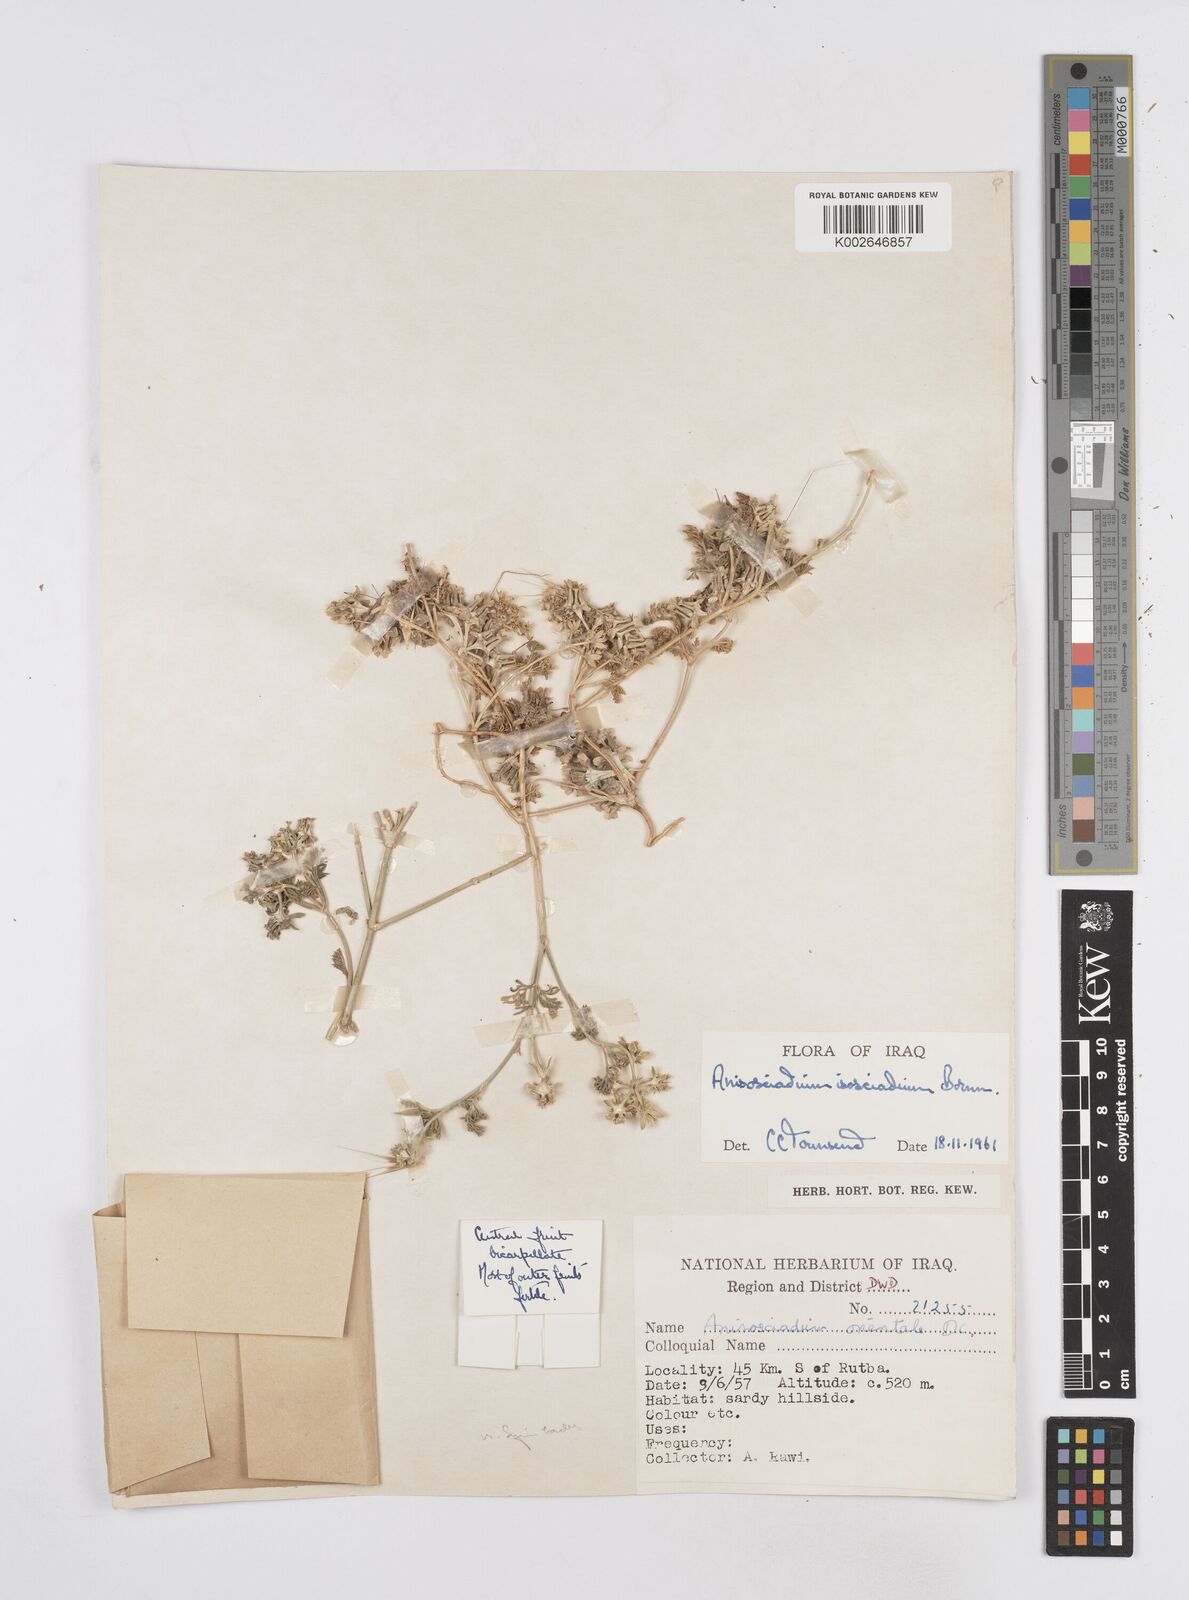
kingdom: Plantae
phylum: Tracheophyta
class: Magnoliopsida
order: Apiales
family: Apiaceae
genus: Anisosciadium
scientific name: Anisosciadium isosciadium
